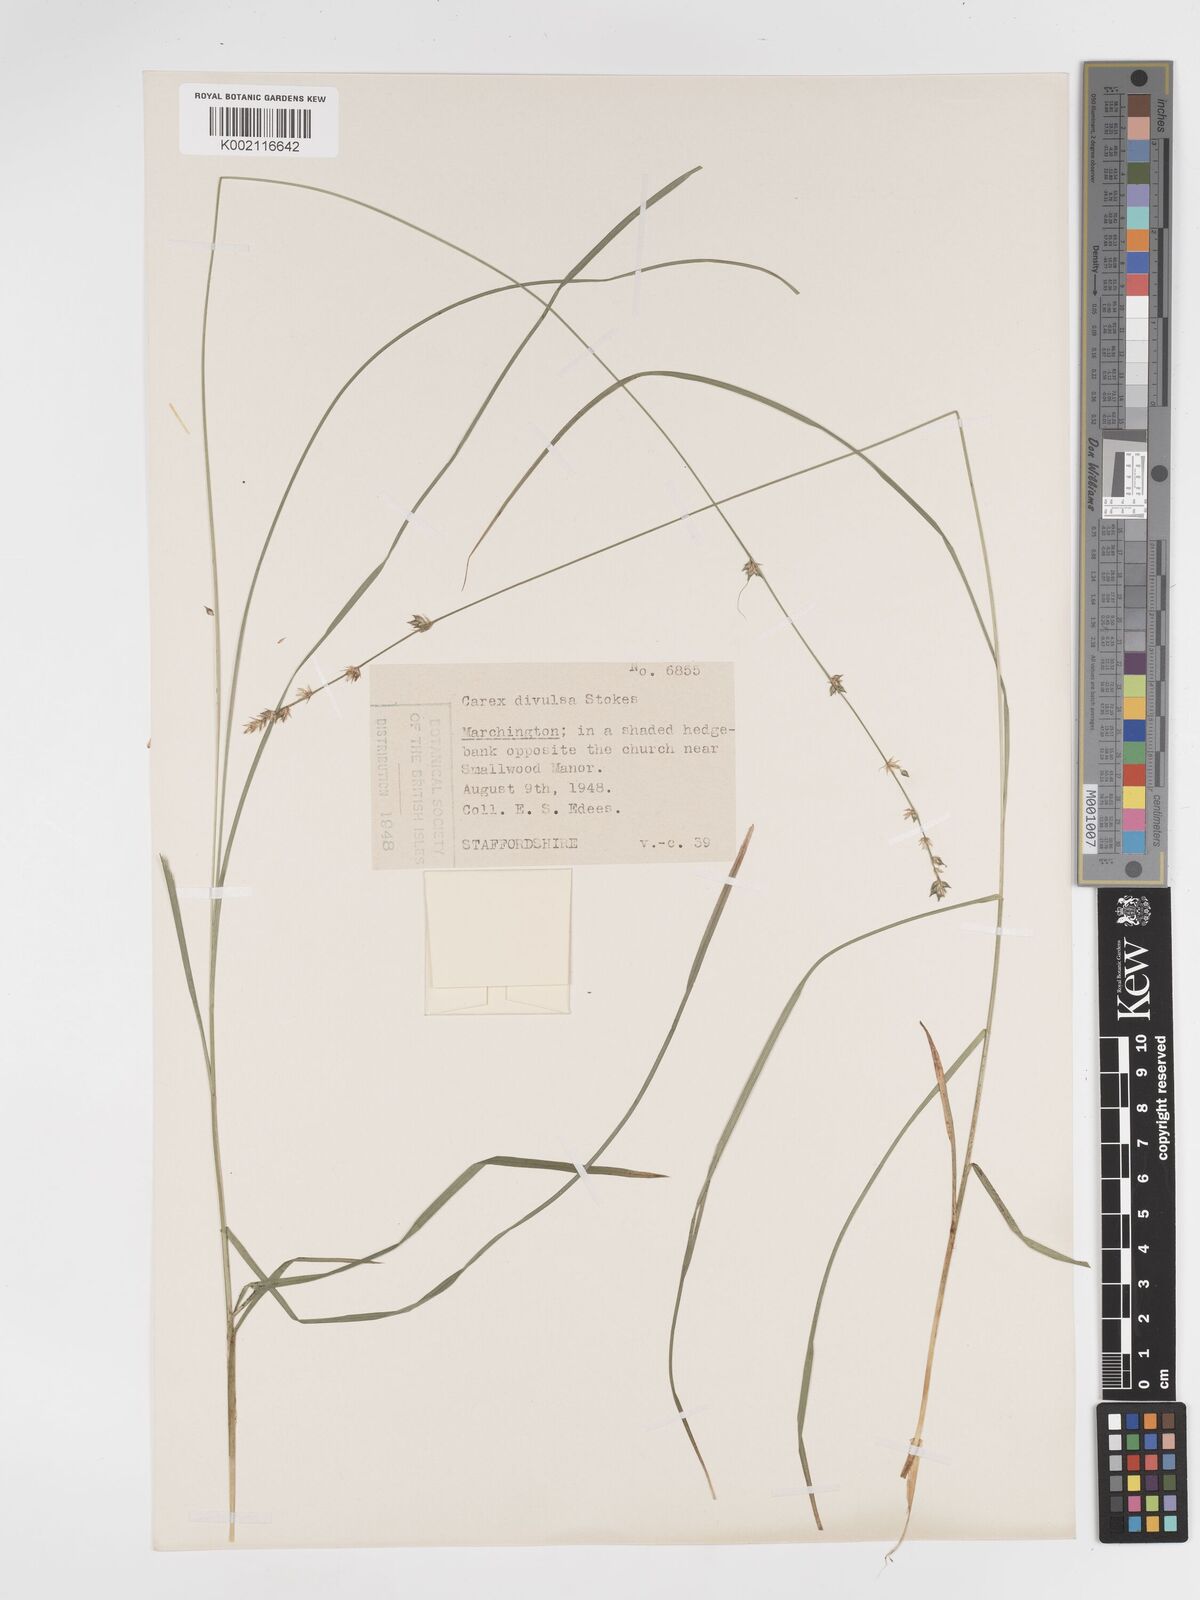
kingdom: Plantae
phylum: Tracheophyta
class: Liliopsida
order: Poales
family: Cyperaceae
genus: Carex
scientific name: Carex divulsa
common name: Grassland sedge
